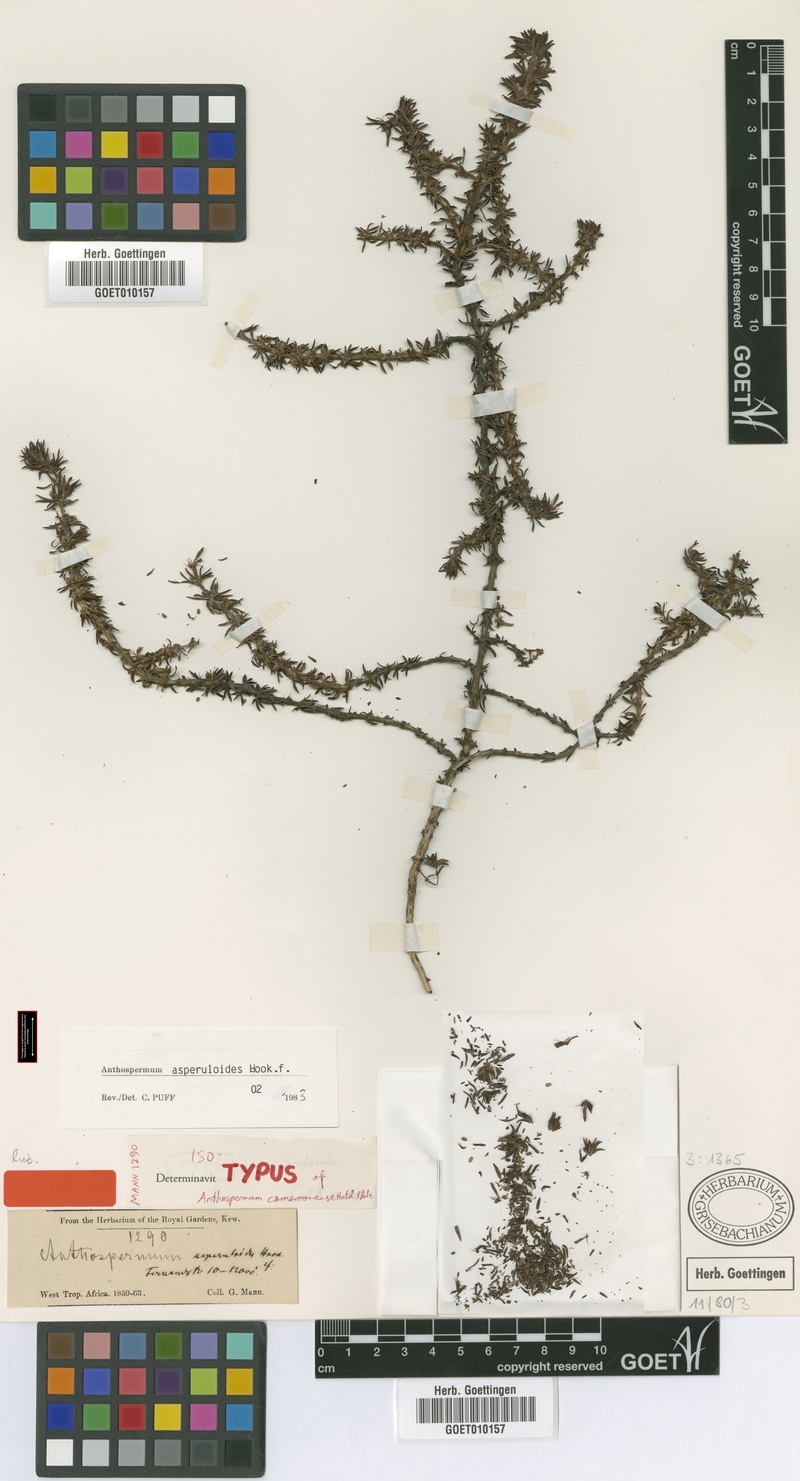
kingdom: Plantae
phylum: Tracheophyta
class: Magnoliopsida
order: Gentianales
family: Rubiaceae
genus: Anthospermum
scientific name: Anthospermum asperuloides
